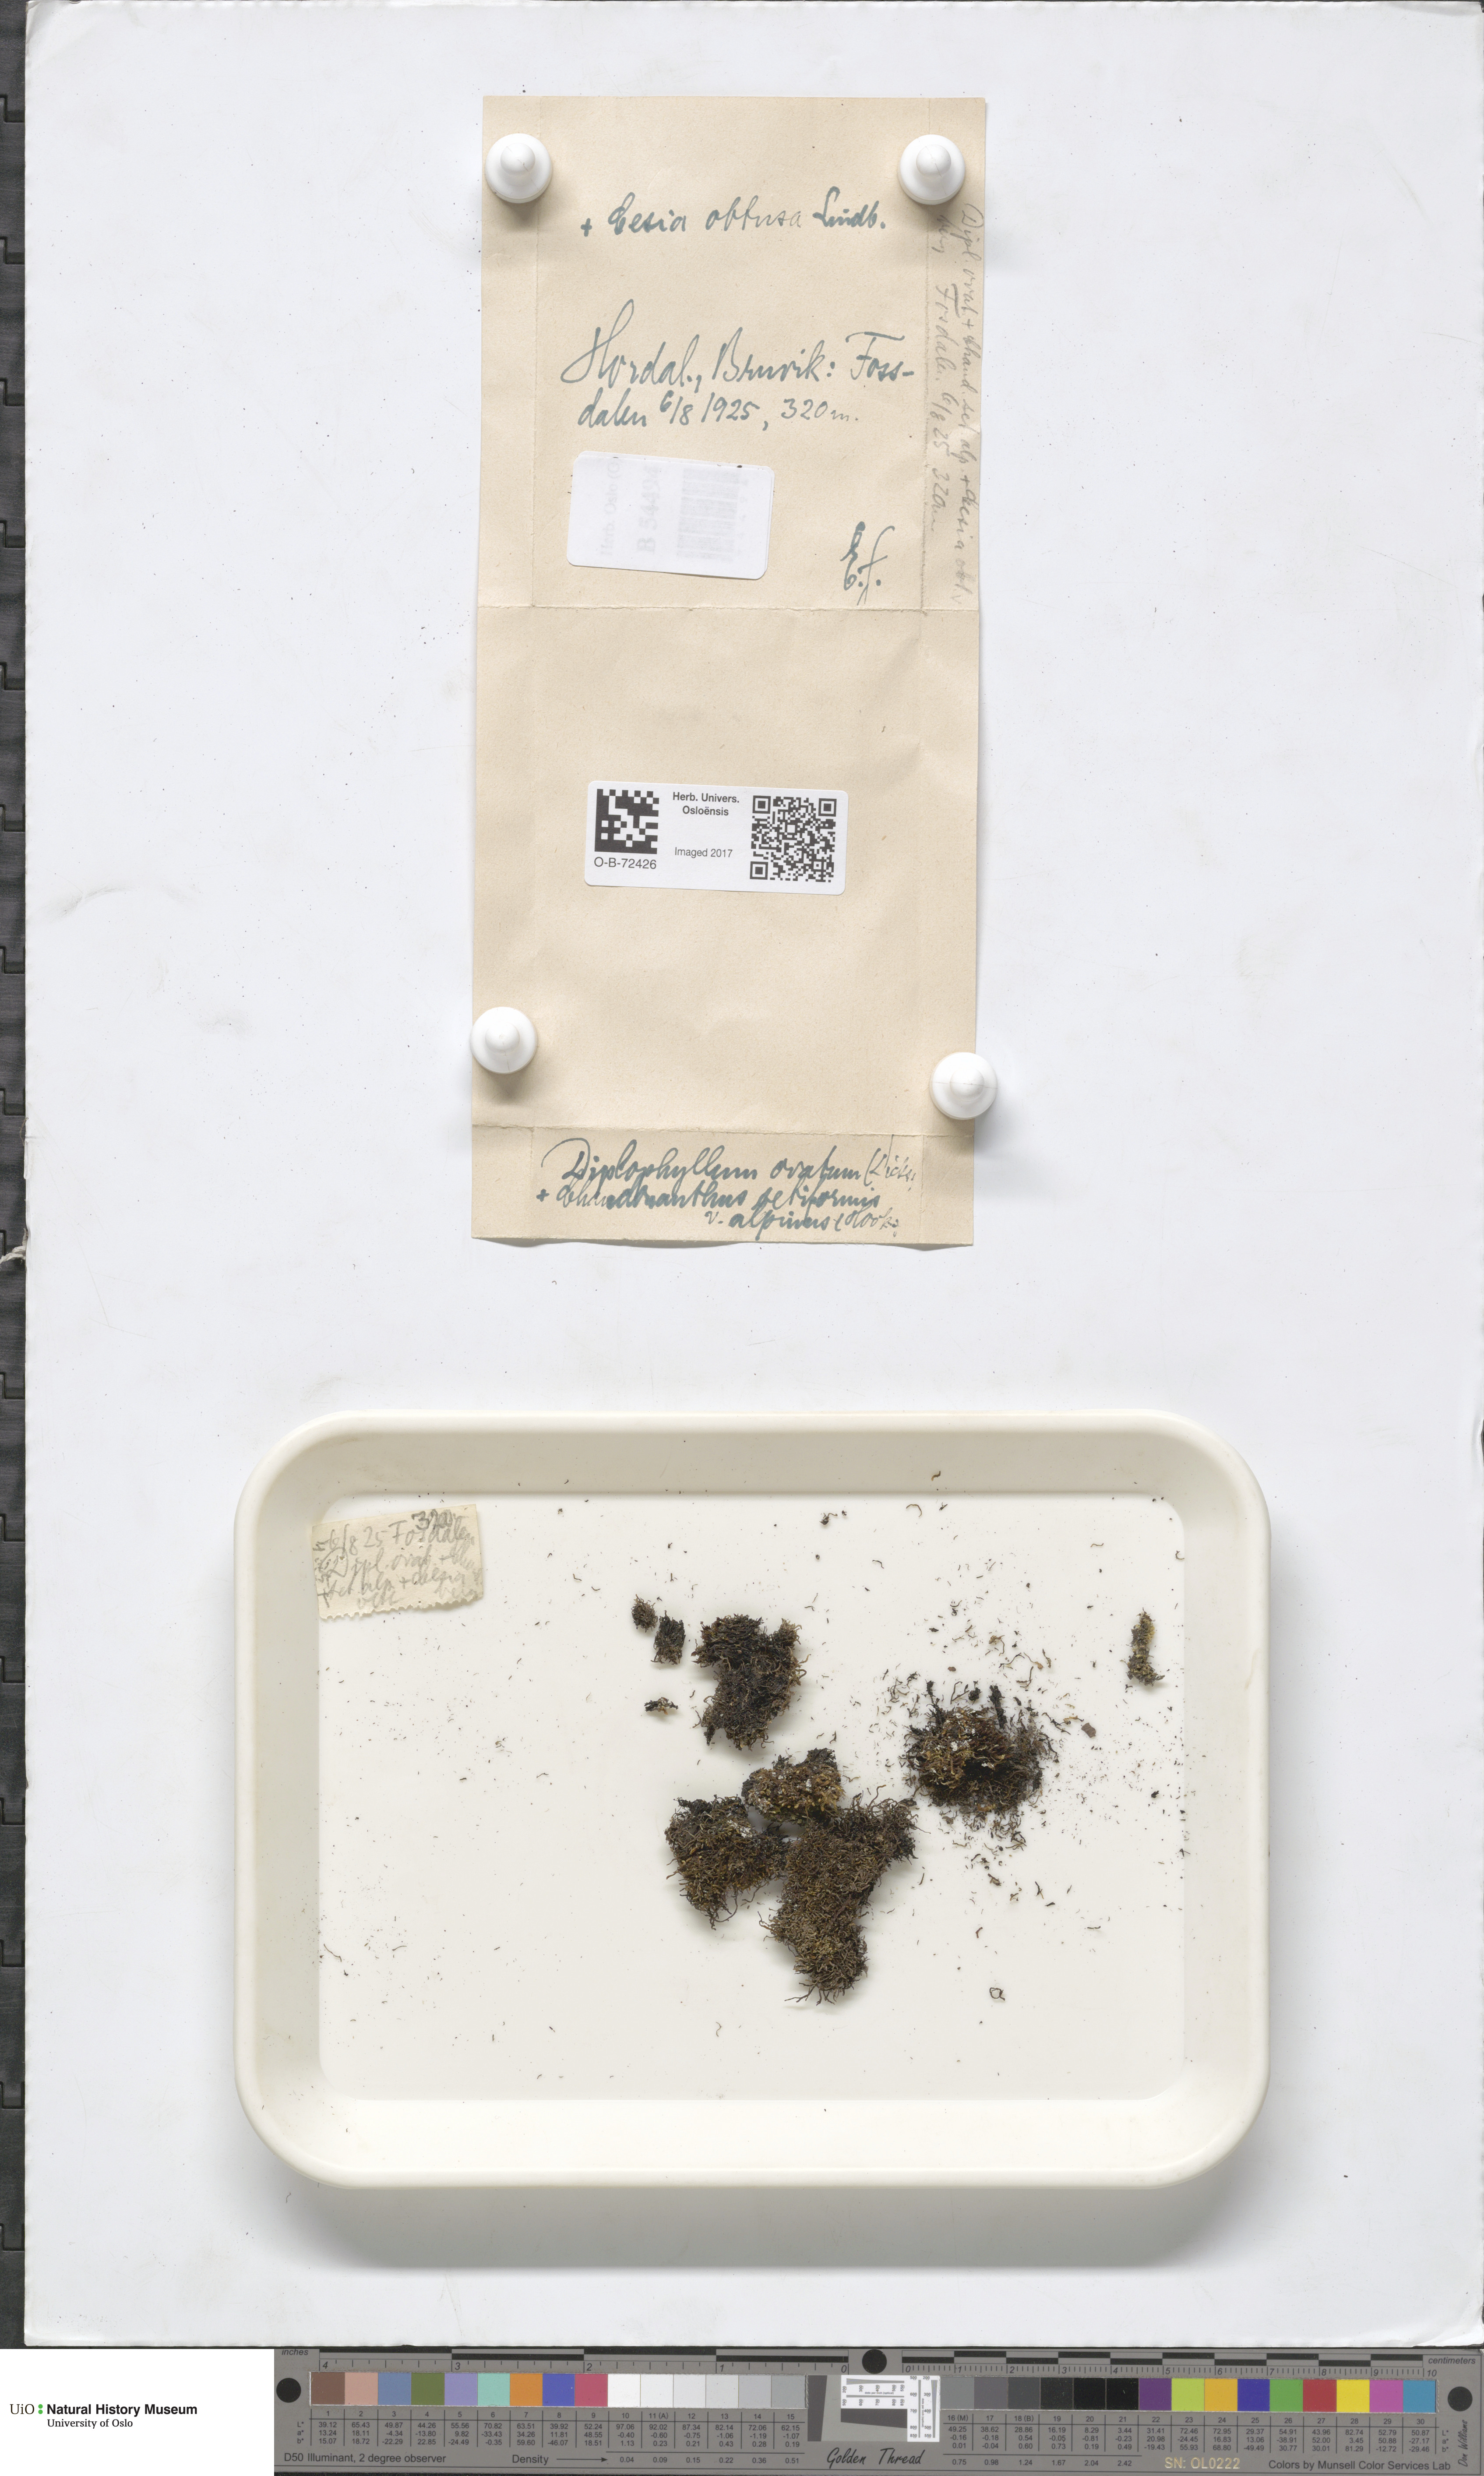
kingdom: Plantae
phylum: Marchantiophyta
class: Jungermanniopsida
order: Jungermanniales
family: Scapaniaceae
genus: Douinia
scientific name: Douinia ovata
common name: Waxy earwort
